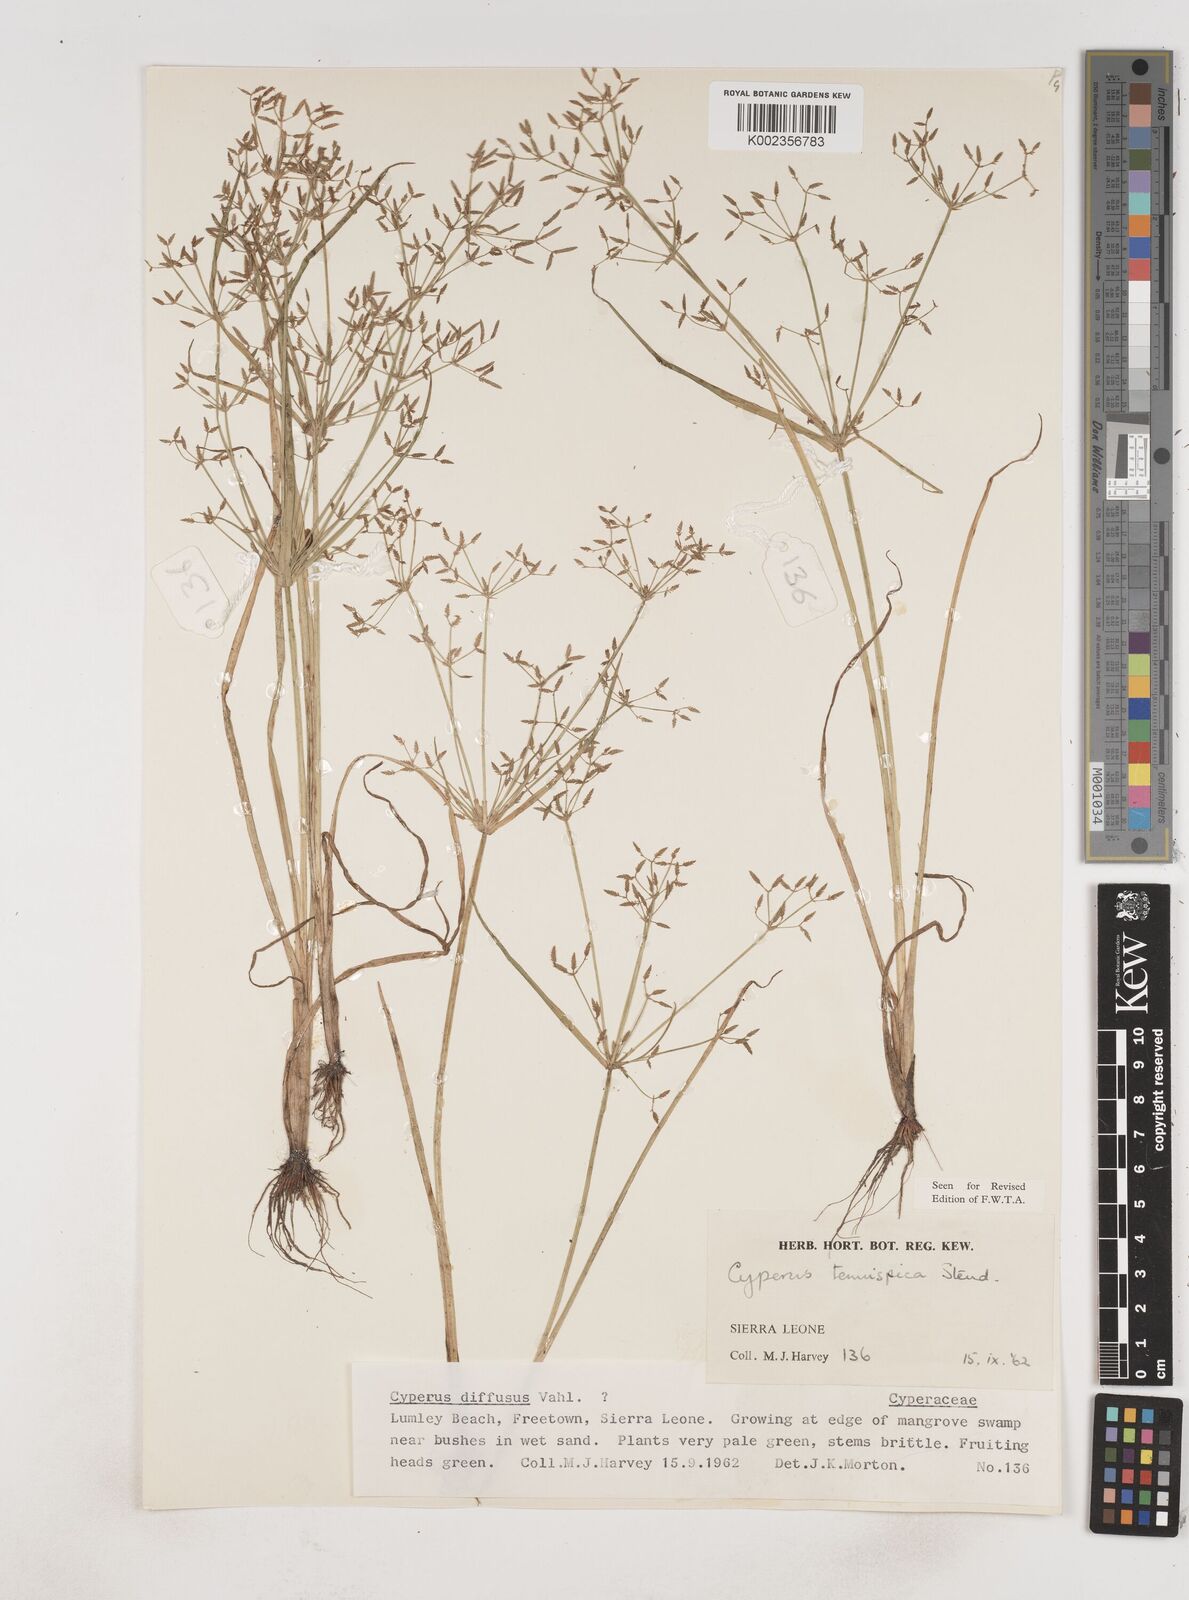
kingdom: Plantae
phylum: Tracheophyta
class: Liliopsida
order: Poales
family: Cyperaceae
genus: Cyperus
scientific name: Cyperus tenuispica
